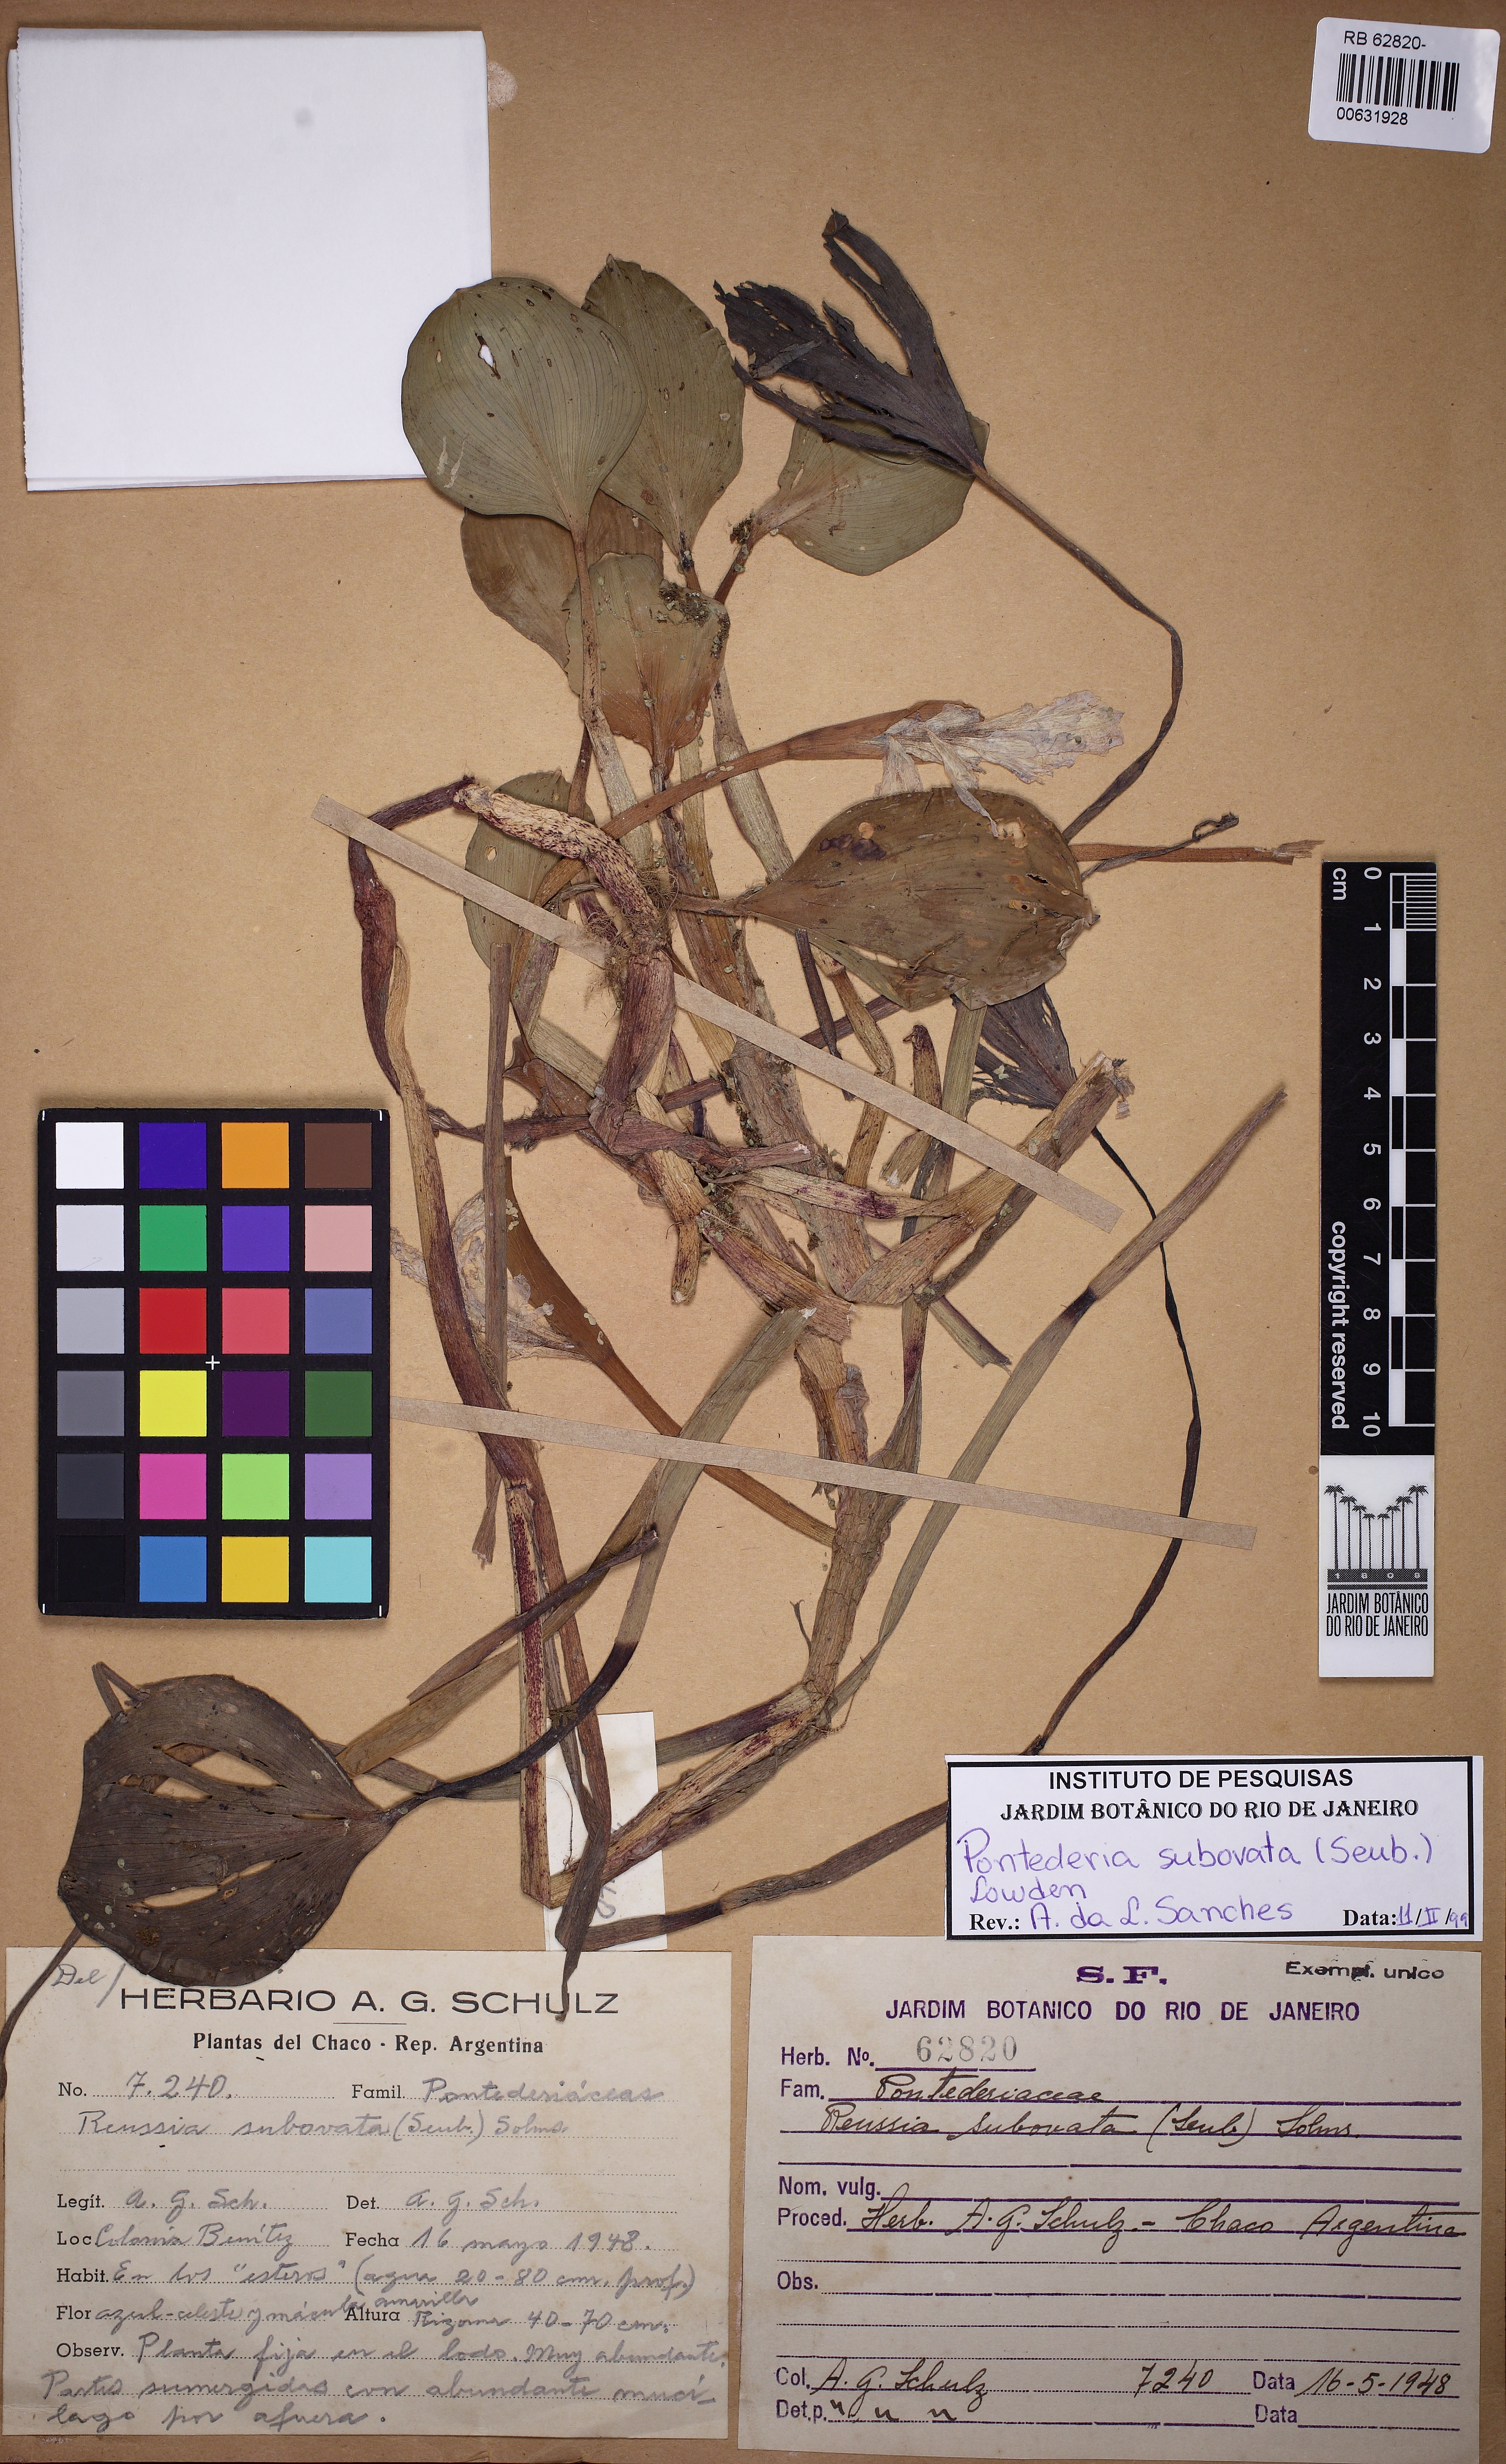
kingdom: Plantae
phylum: Tracheophyta
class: Liliopsida
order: Commelinales
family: Pontederiaceae
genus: Pontederia
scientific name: Pontederia subovata
